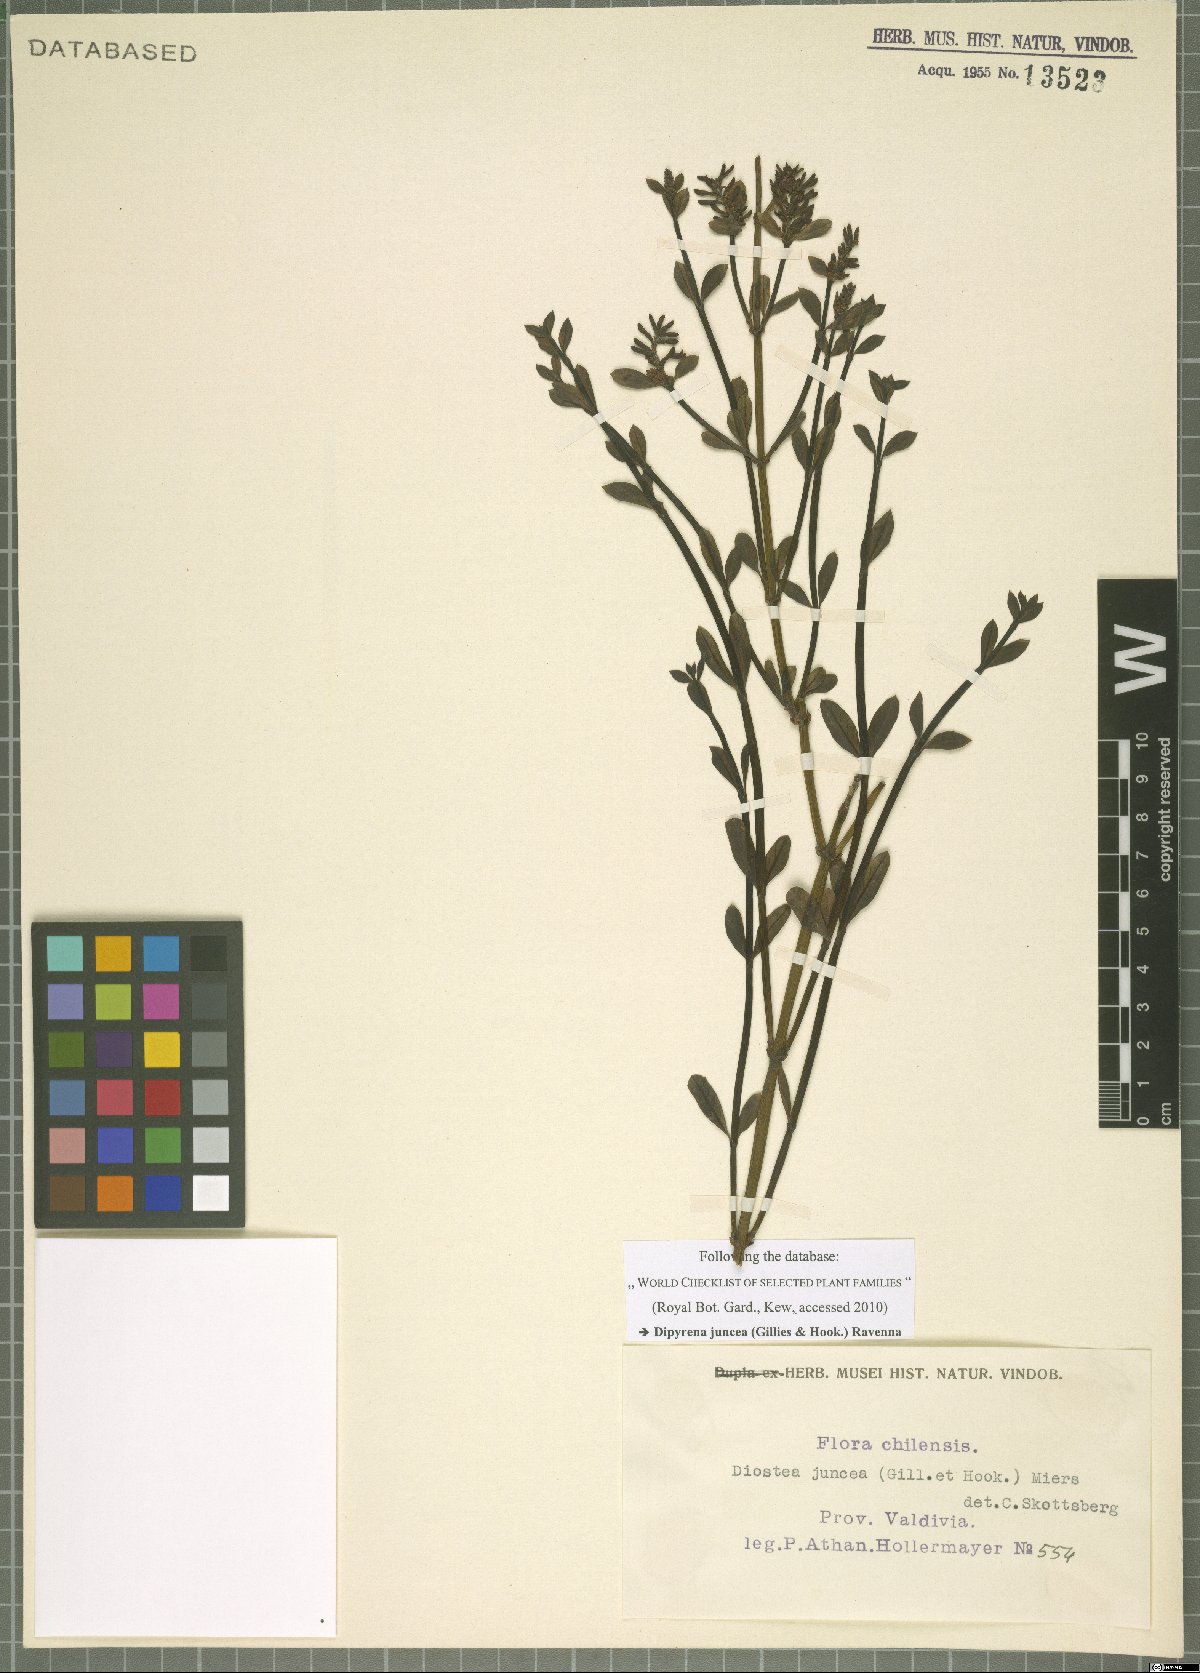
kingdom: Plantae
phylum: Tracheophyta
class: Magnoliopsida
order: Lamiales
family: Verbenaceae
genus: Diostea
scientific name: Diostea juncea
